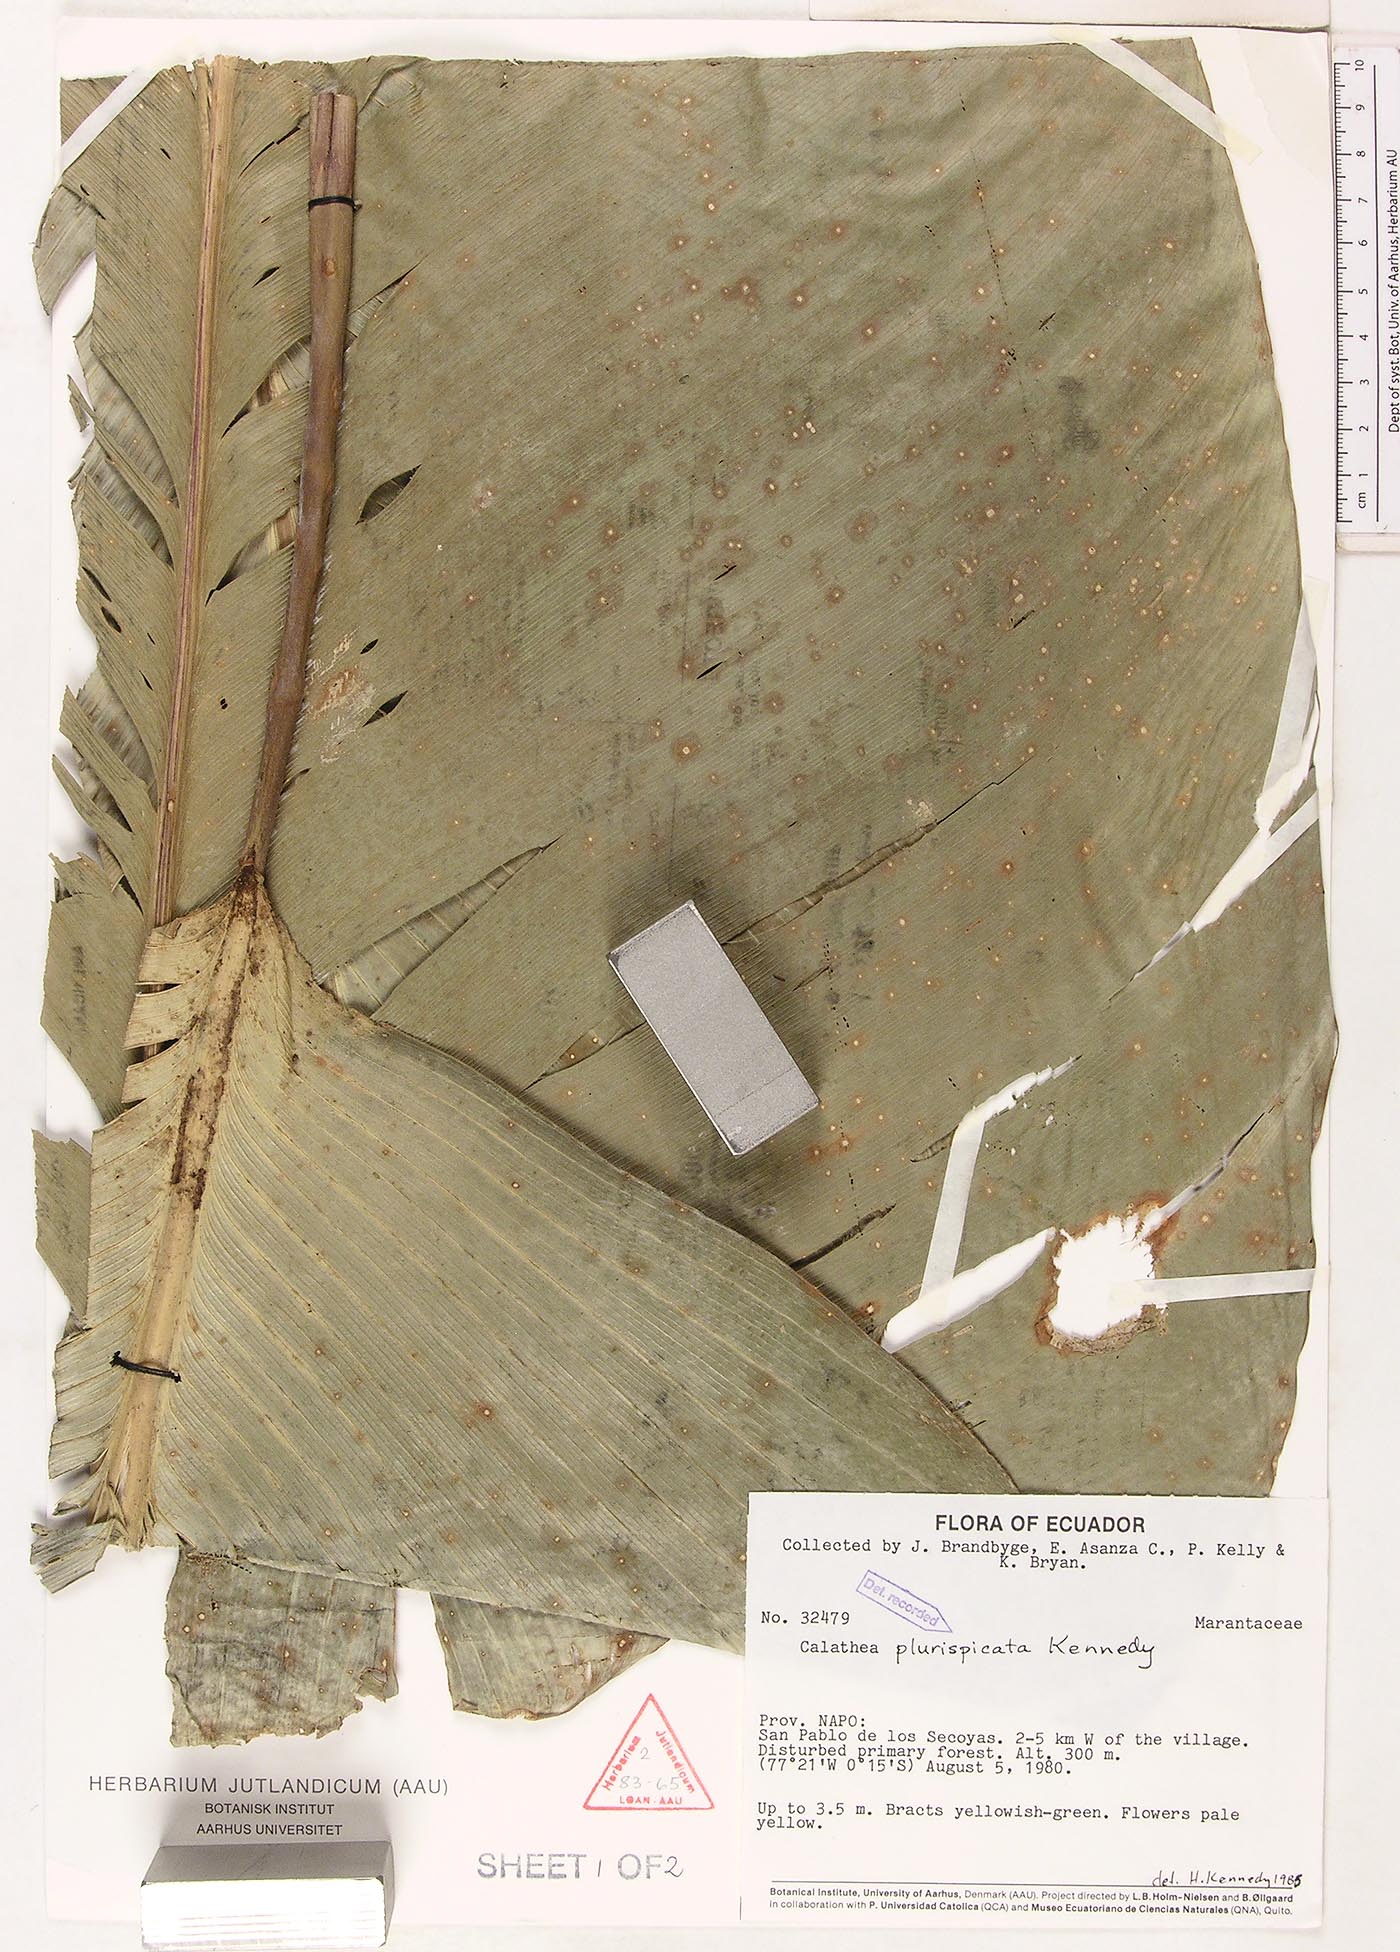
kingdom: Plantae
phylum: Tracheophyta
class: Liliopsida
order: Zingiberales
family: Marantaceae
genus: Calathea
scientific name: Calathea plurispicata
